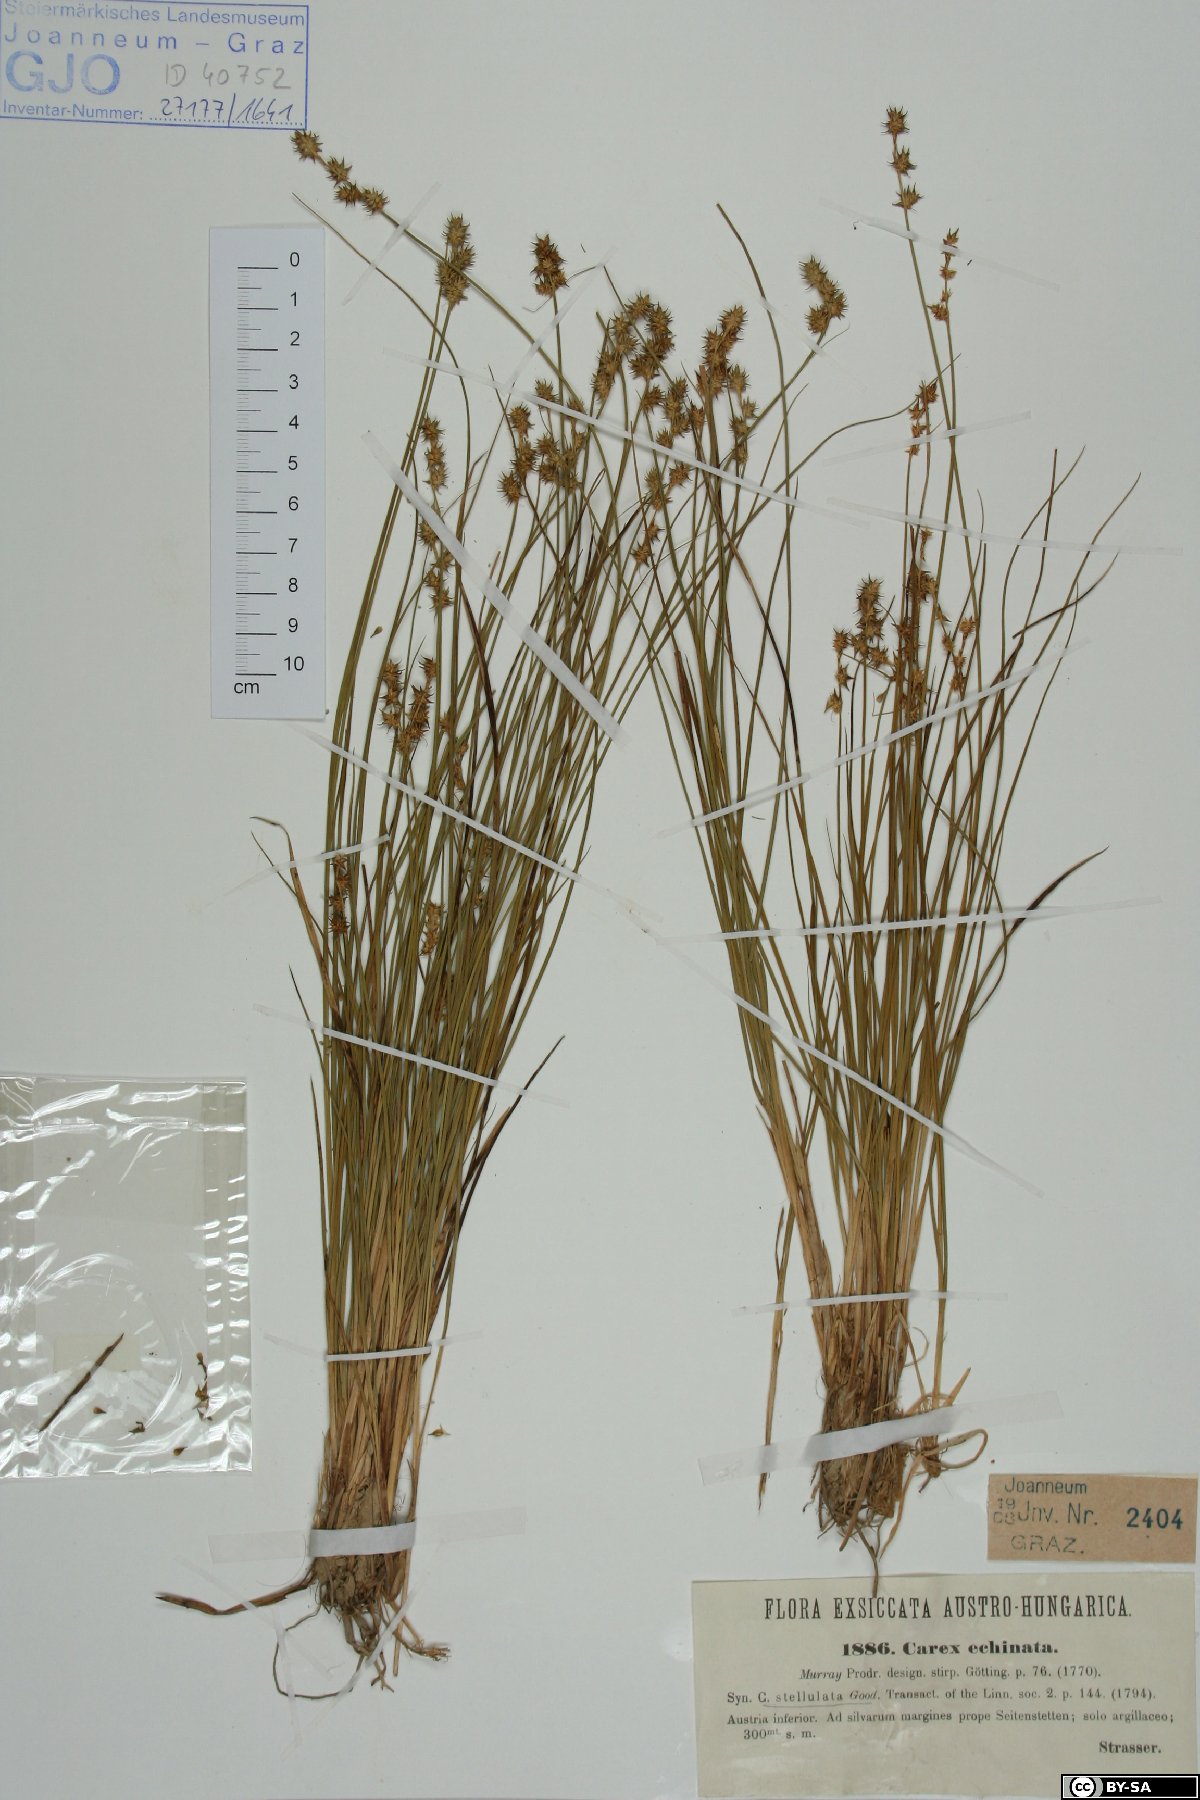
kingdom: Plantae
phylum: Tracheophyta
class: Liliopsida
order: Poales
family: Cyperaceae
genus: Carex
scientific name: Carex echinata
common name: Star sedge
